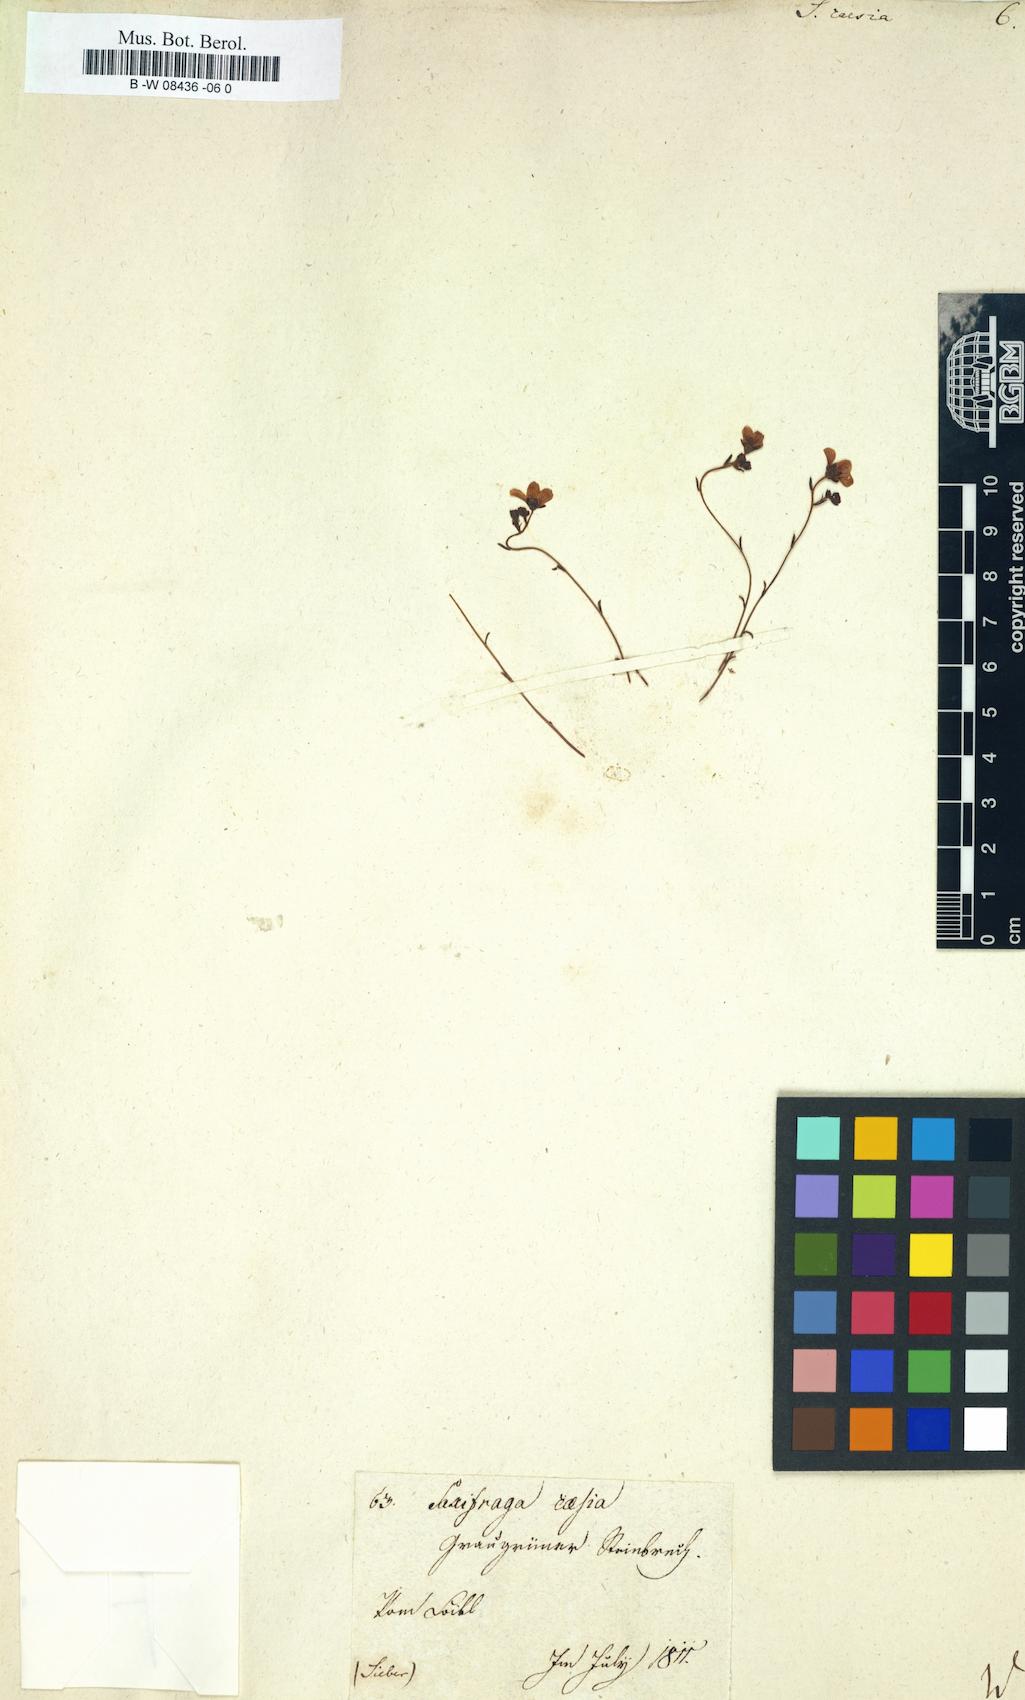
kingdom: Plantae
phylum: Tracheophyta
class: Magnoliopsida
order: Saxifragales
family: Saxifragaceae
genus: Saxifraga
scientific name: Saxifraga caesia
